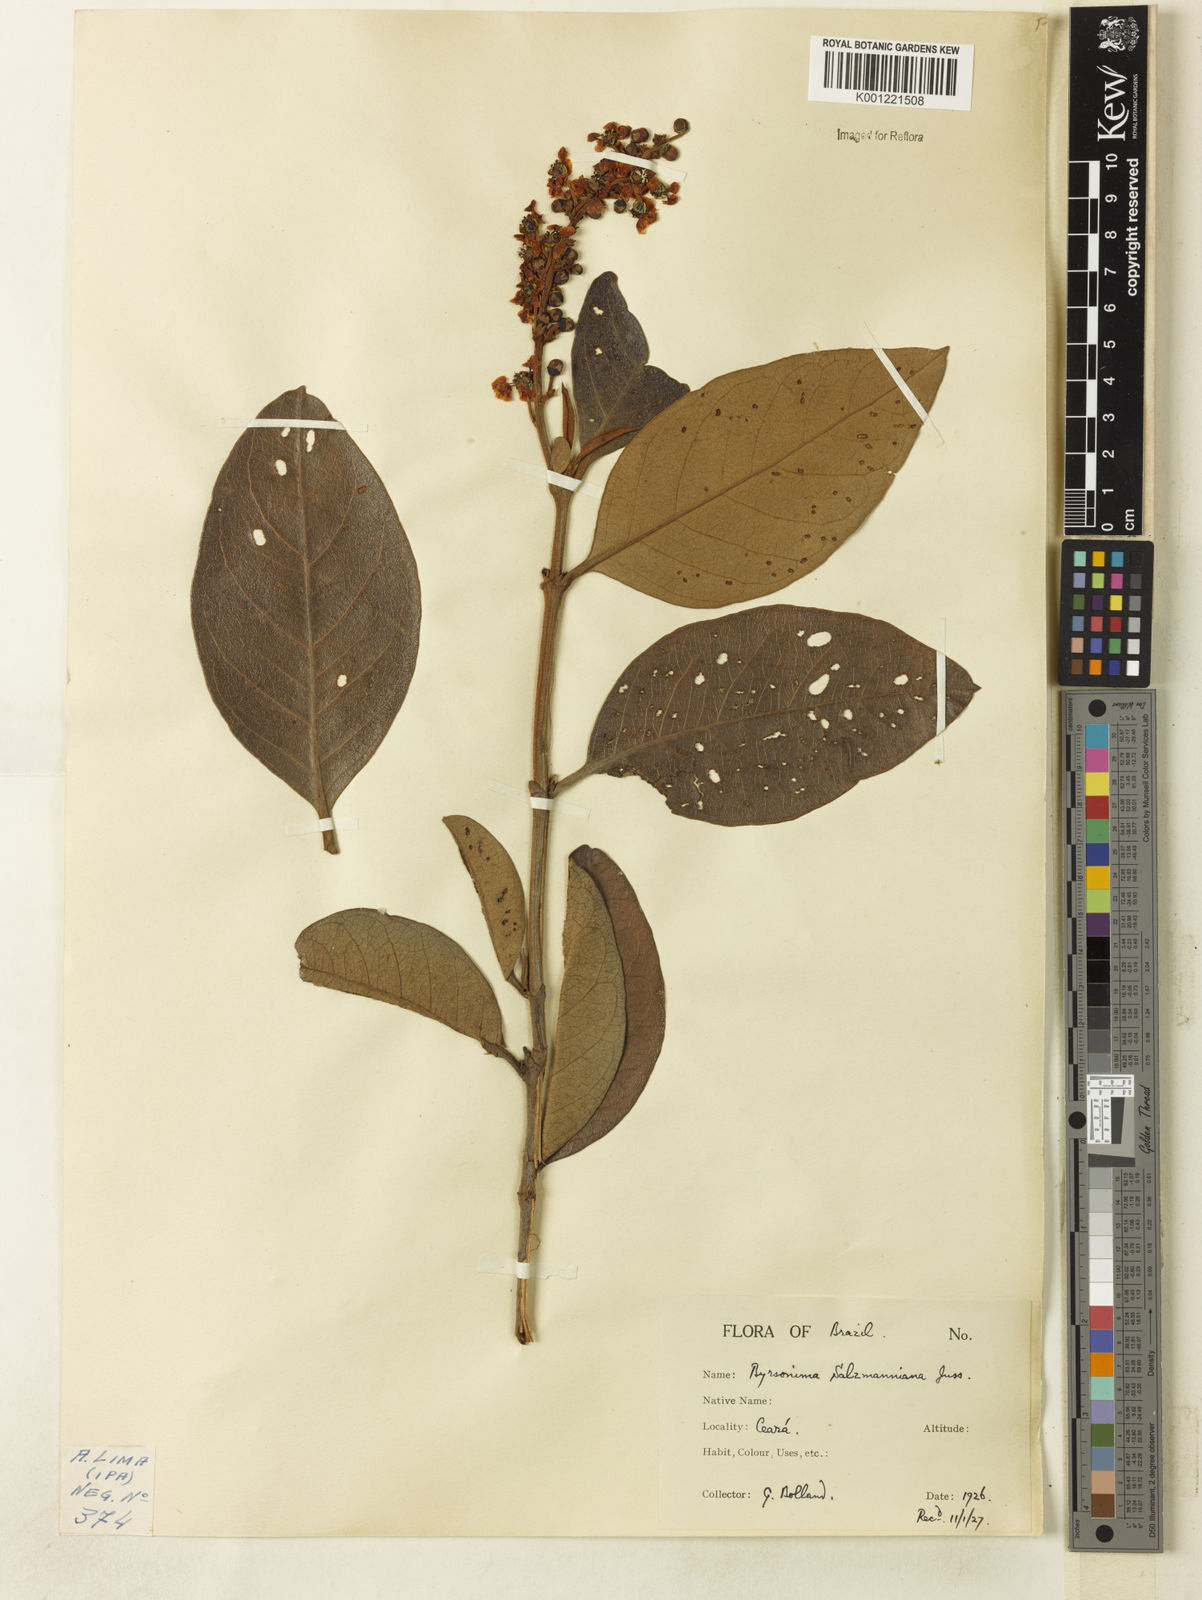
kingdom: Plantae
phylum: Tracheophyta
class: Magnoliopsida
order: Malpighiales
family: Malpighiaceae
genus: Byrsonima
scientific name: Byrsonima salzmanniana
